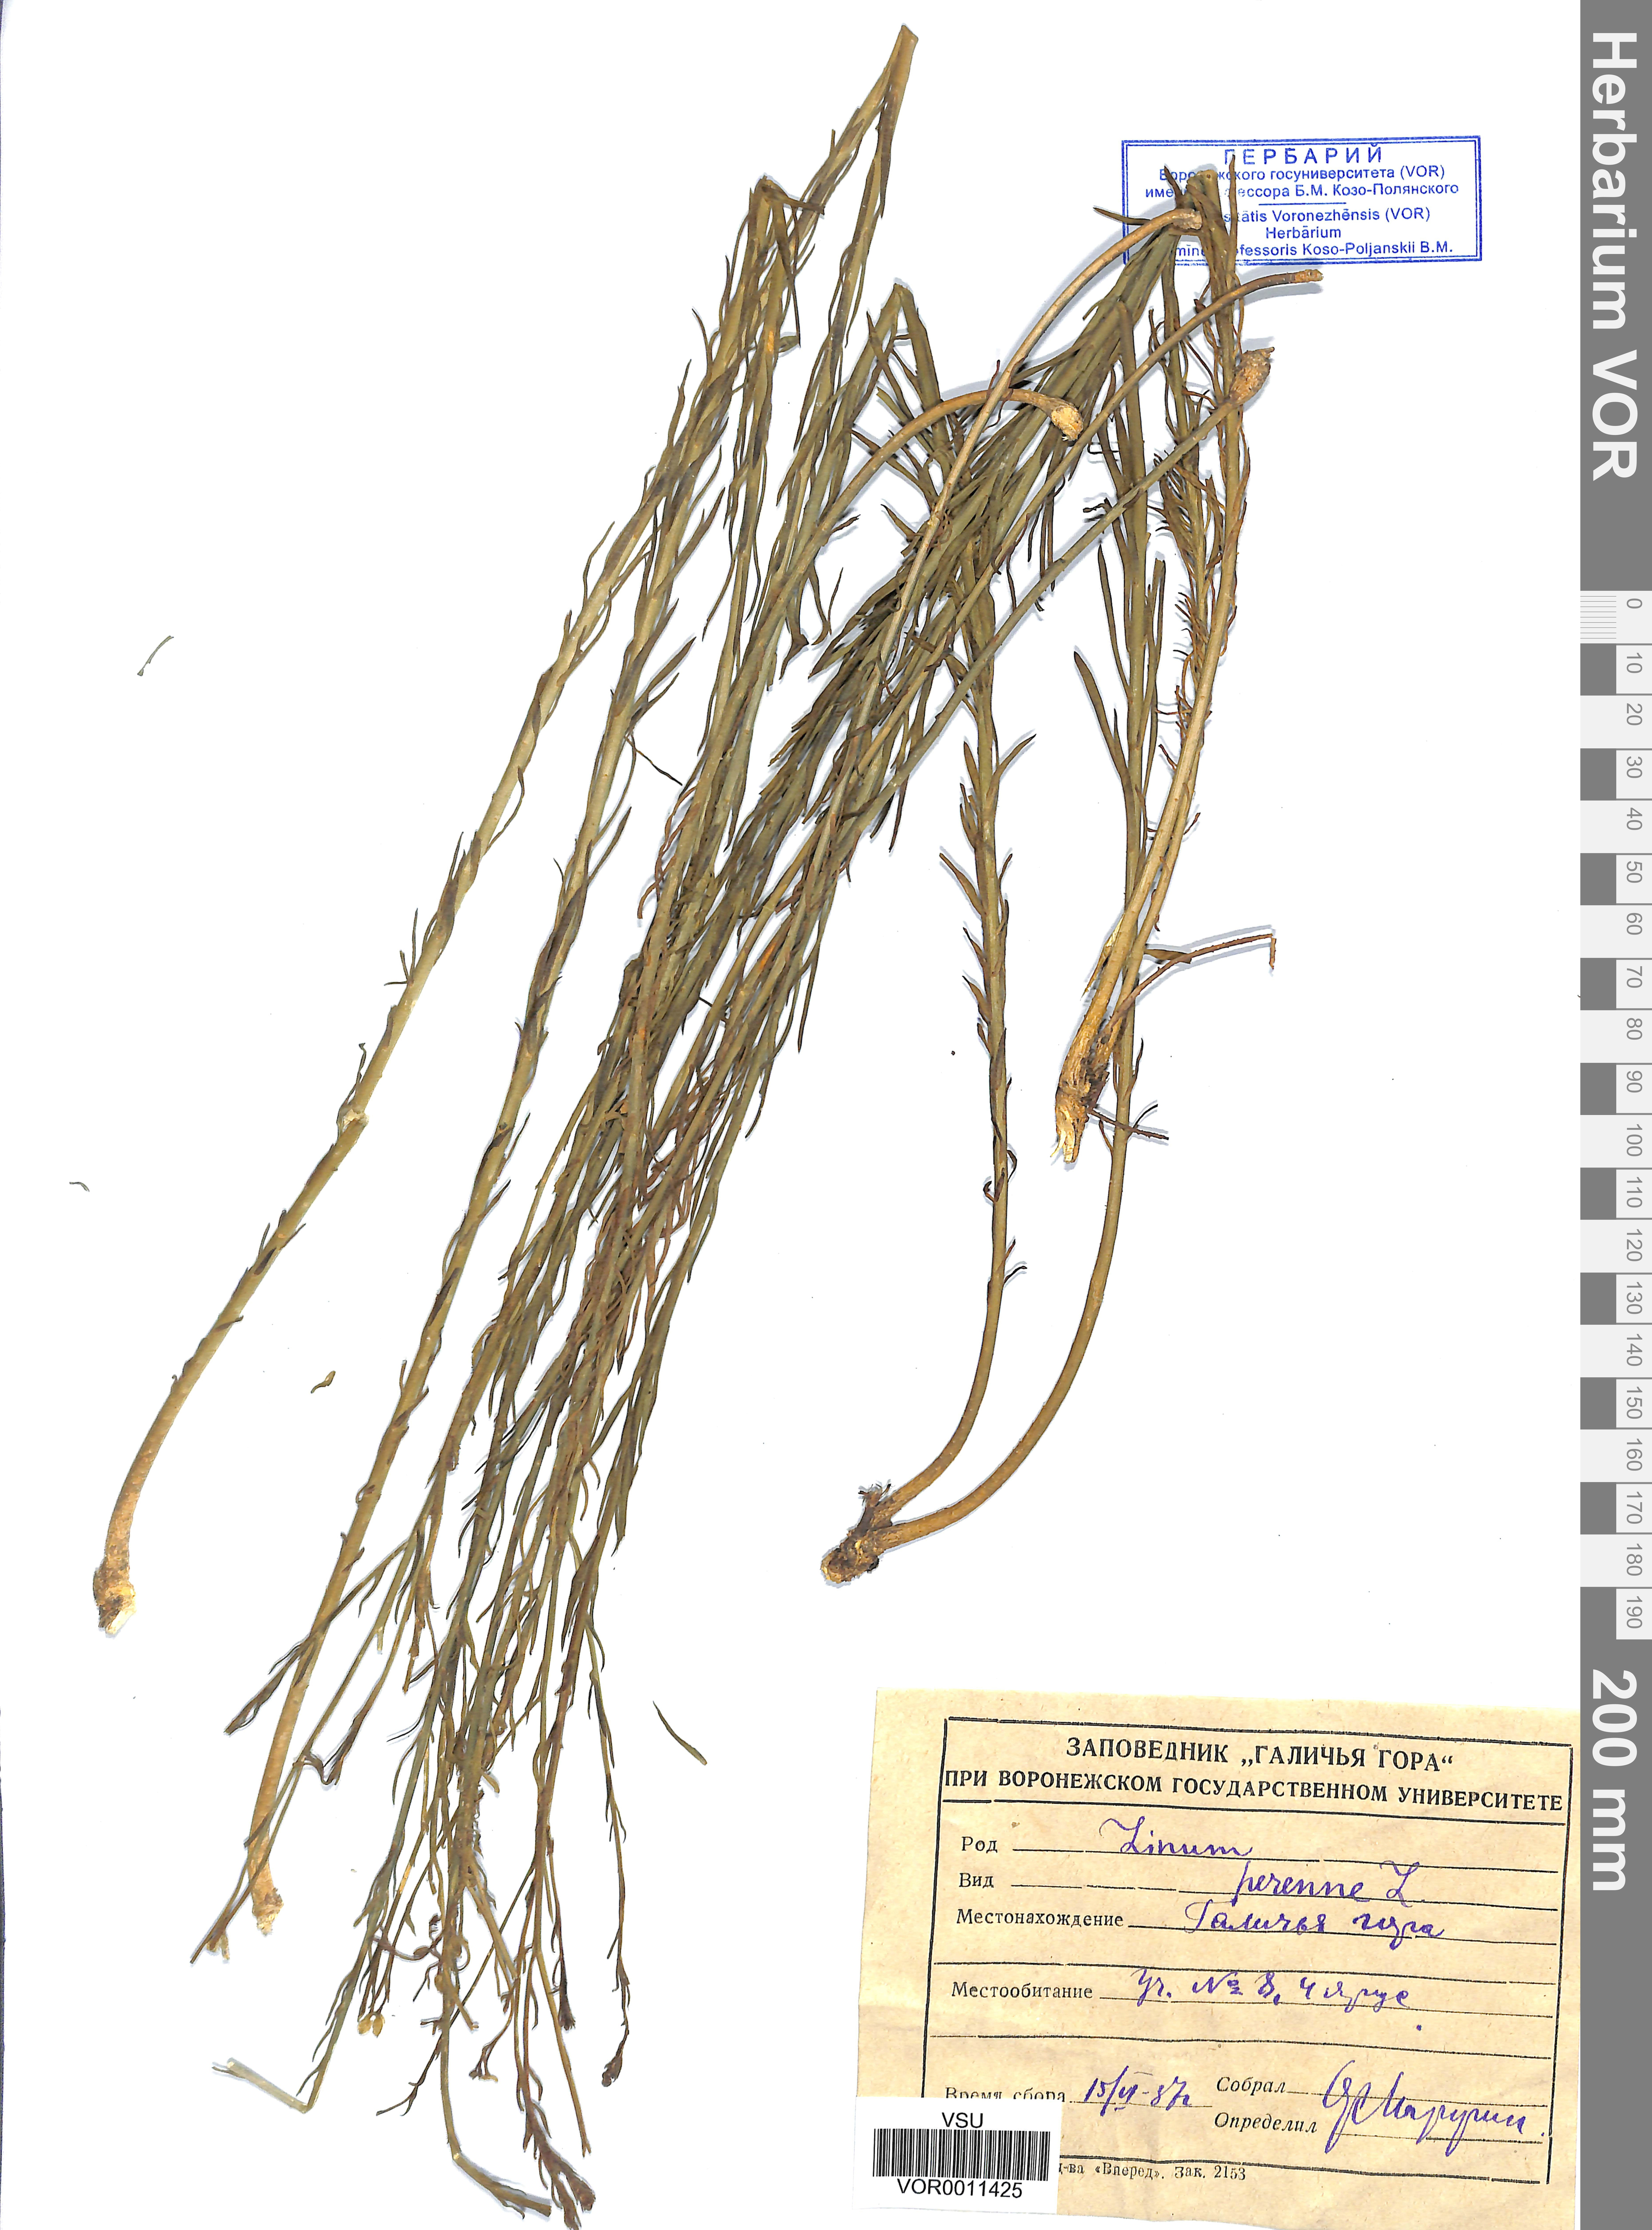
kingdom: Plantae
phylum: Tracheophyta
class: Magnoliopsida
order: Malpighiales
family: Linaceae
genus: Linum
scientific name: Linum perenne
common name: Blue flax
